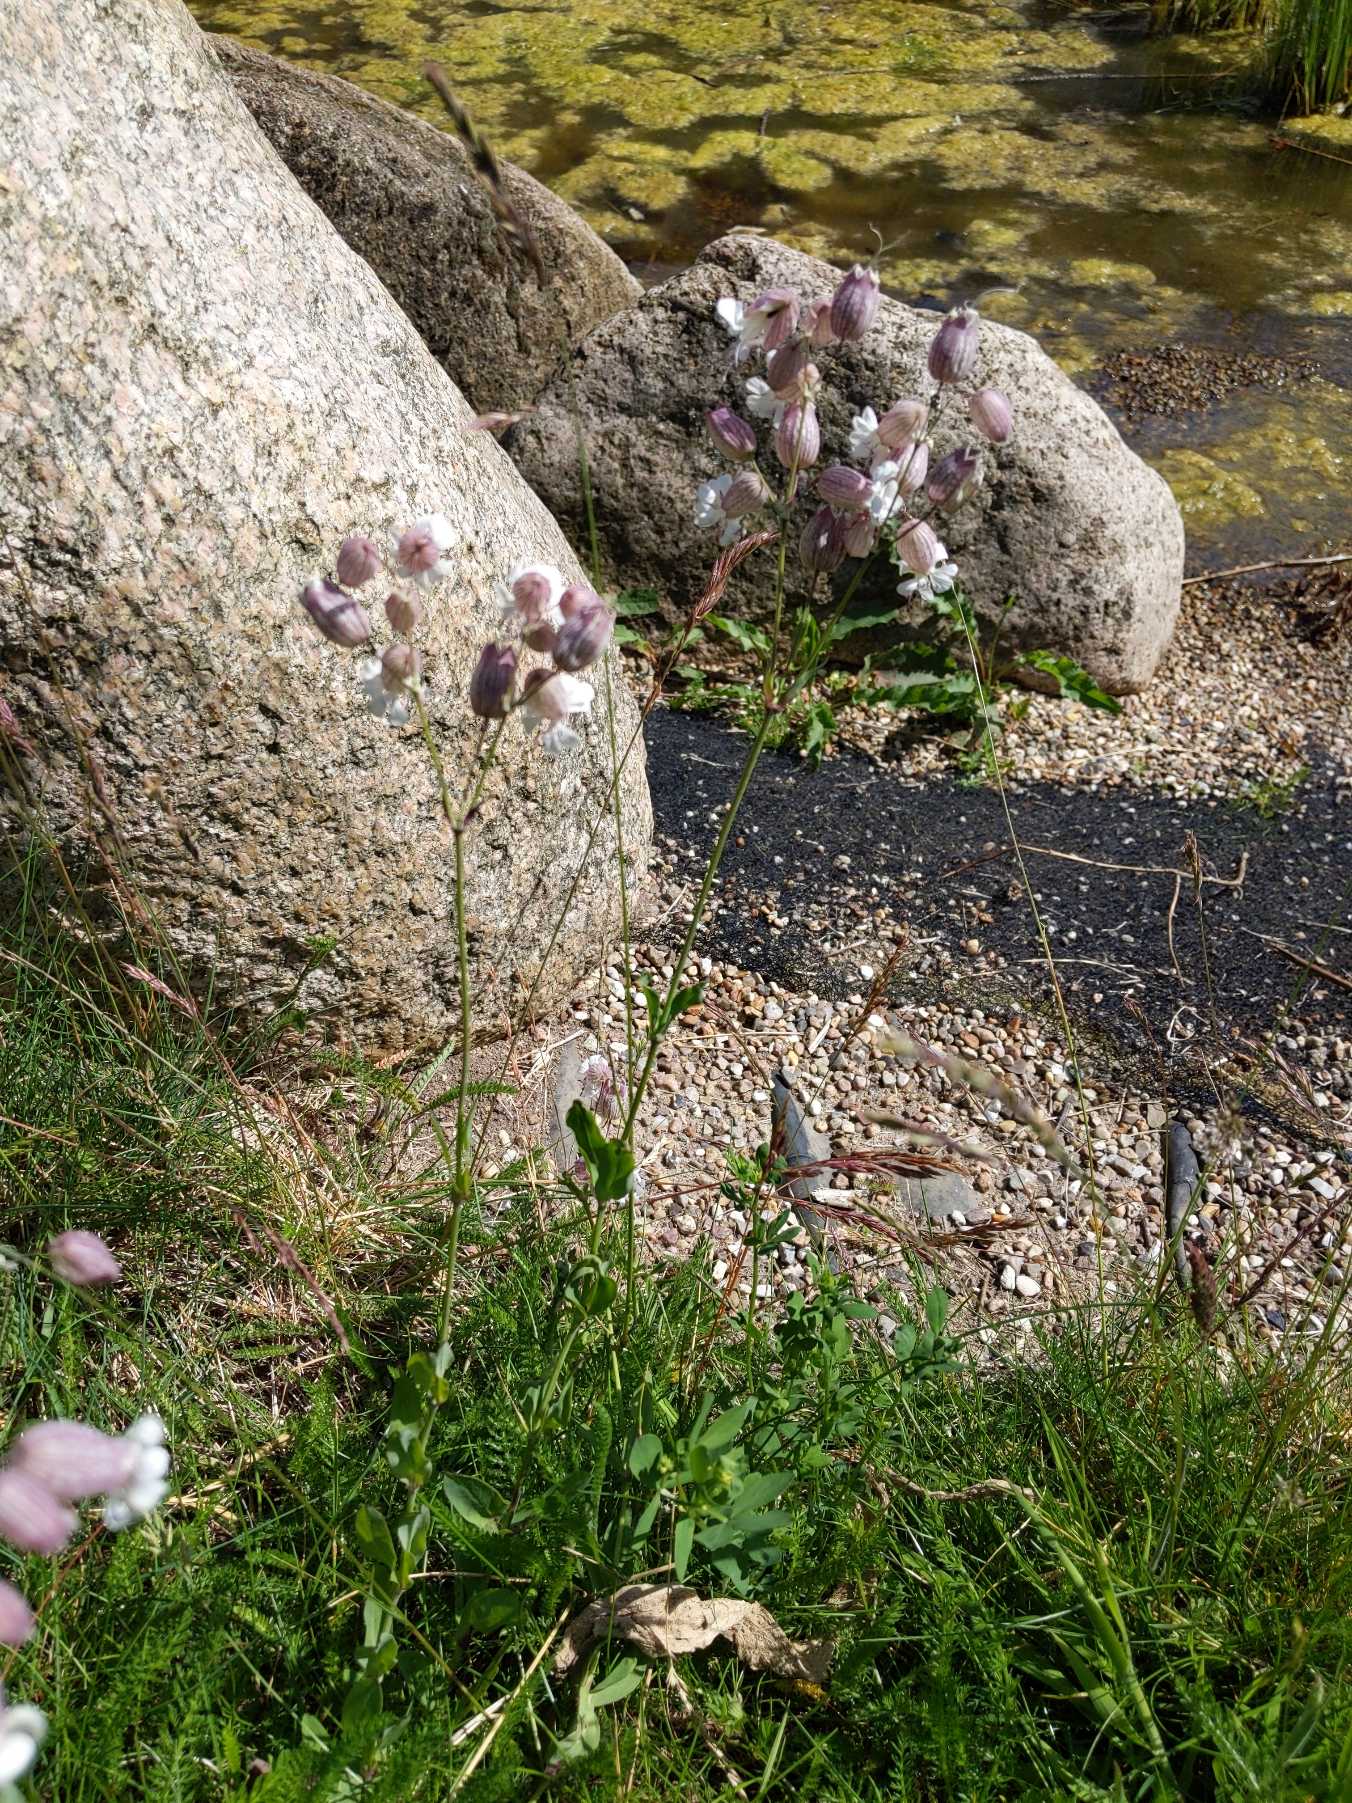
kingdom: Plantae
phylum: Tracheophyta
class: Magnoliopsida
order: Caryophyllales
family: Caryophyllaceae
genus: Silene
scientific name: Silene vulgaris
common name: Blæresmælde
